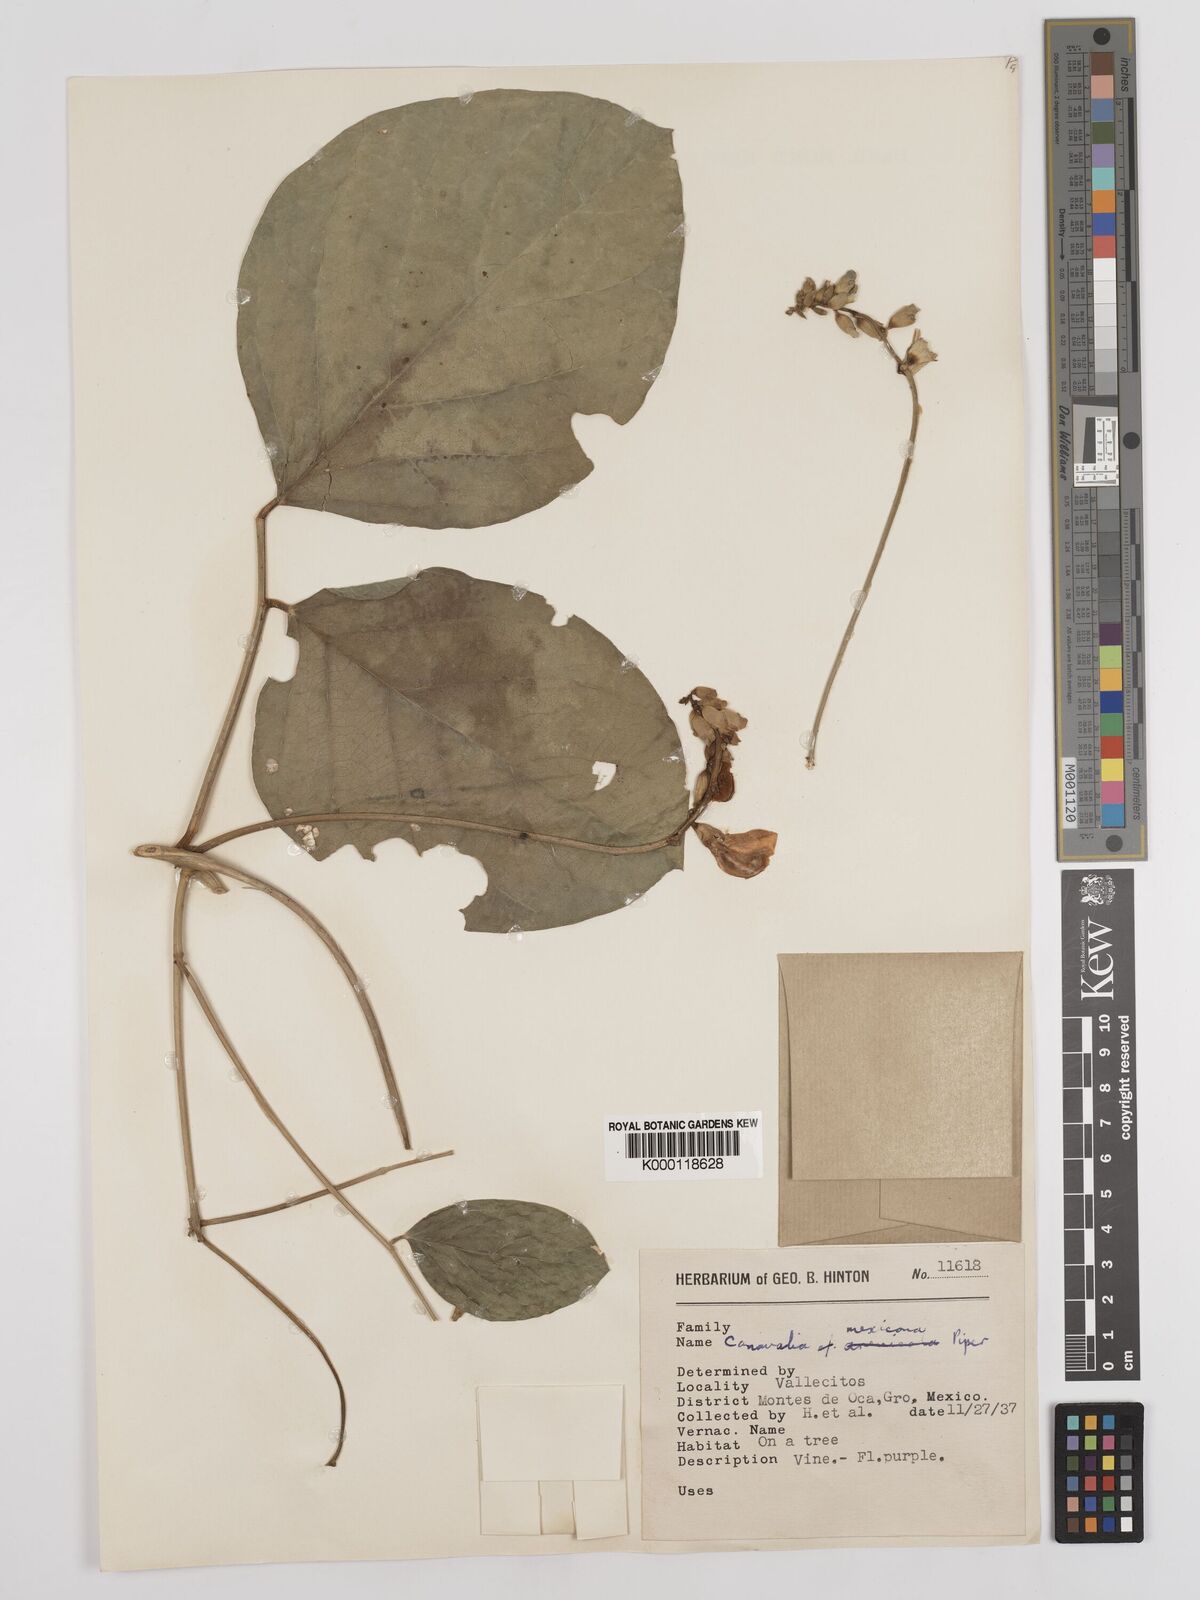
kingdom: Plantae
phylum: Tracheophyta
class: Magnoliopsida
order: Fabales
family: Fabaceae
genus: Canavalia
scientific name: Canavalia brasiliensis
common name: Barbicou-bean
